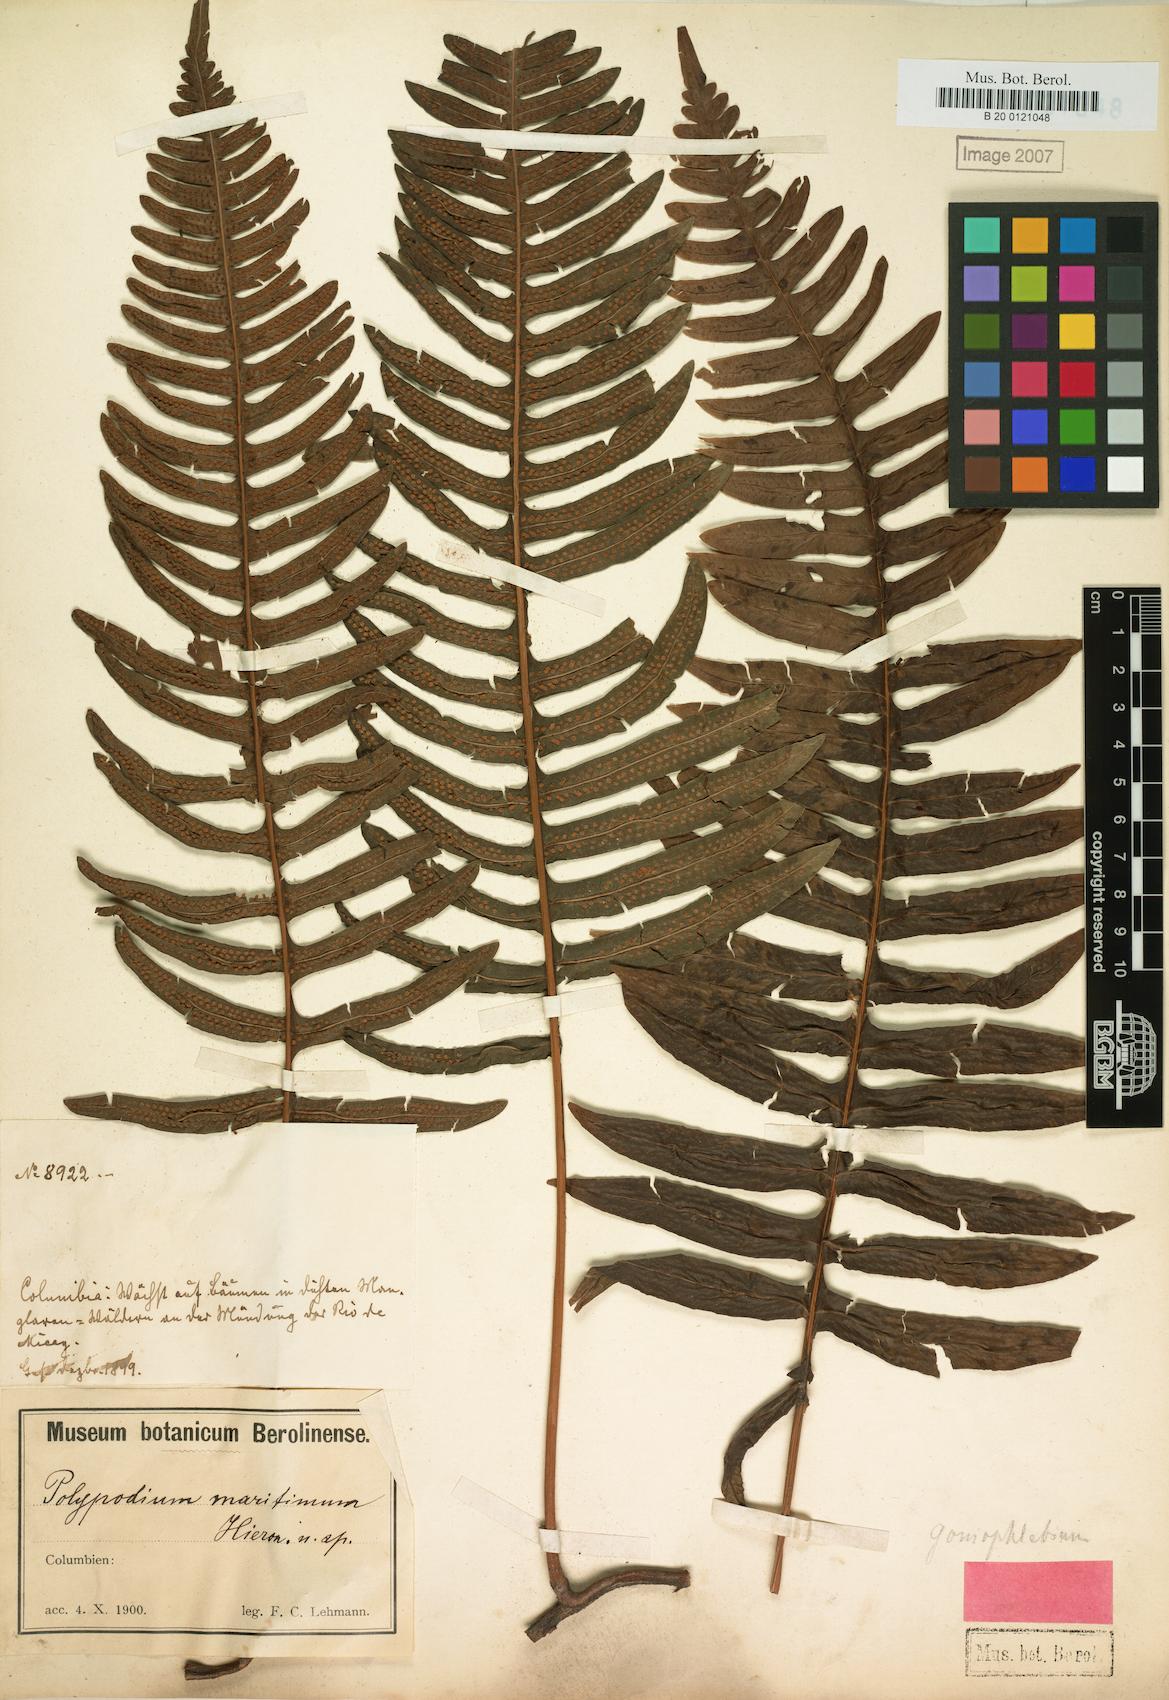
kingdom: Plantae
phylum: Tracheophyta
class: Polypodiopsida
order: Polypodiales
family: Polypodiaceae
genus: Serpocaulon
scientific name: Serpocaulon maritimum
